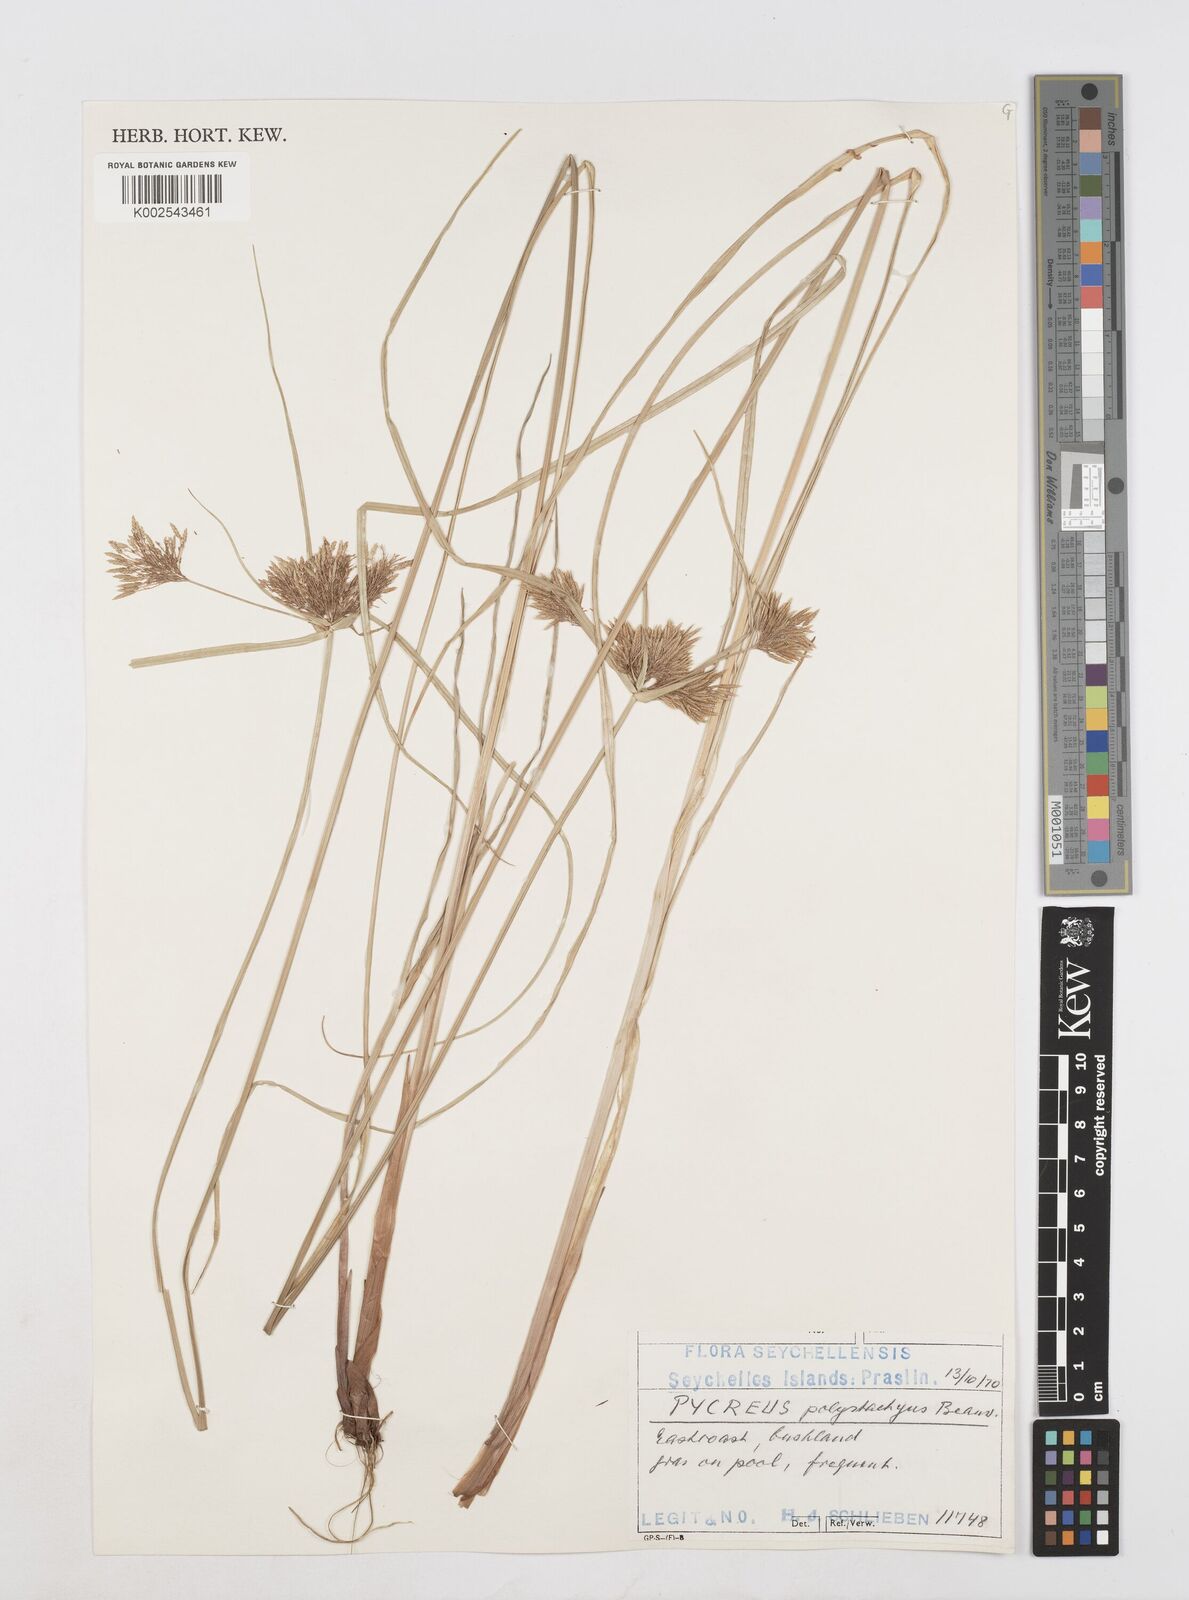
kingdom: Plantae
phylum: Tracheophyta
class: Liliopsida
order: Poales
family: Cyperaceae
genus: Cyperus
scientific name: Cyperus polystachyos
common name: Bunchy flat sedge
